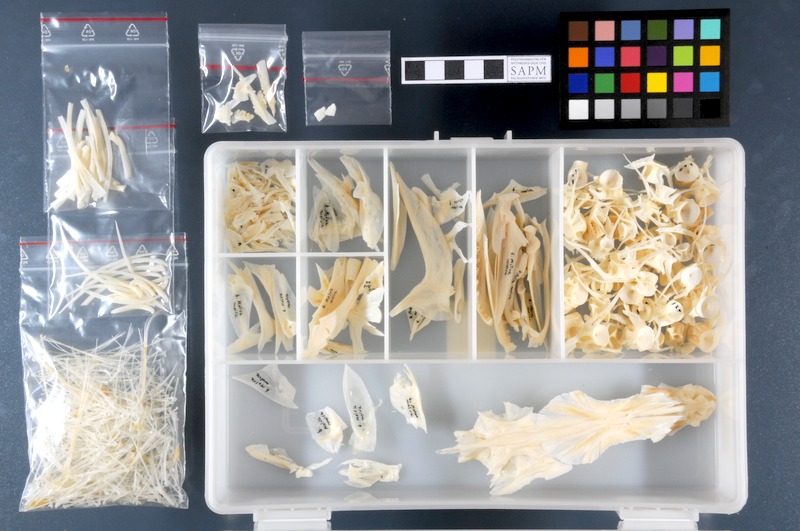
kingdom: Animalia
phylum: Chordata
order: Gadiformes
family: Lotidae
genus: Molva
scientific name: Molva molva
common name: Ling
